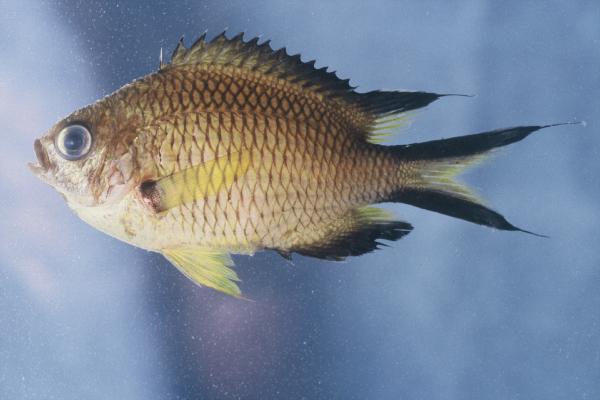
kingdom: Animalia
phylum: Chordata
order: Perciformes
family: Pomacentridae
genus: Chromis
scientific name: Chromis limbata
